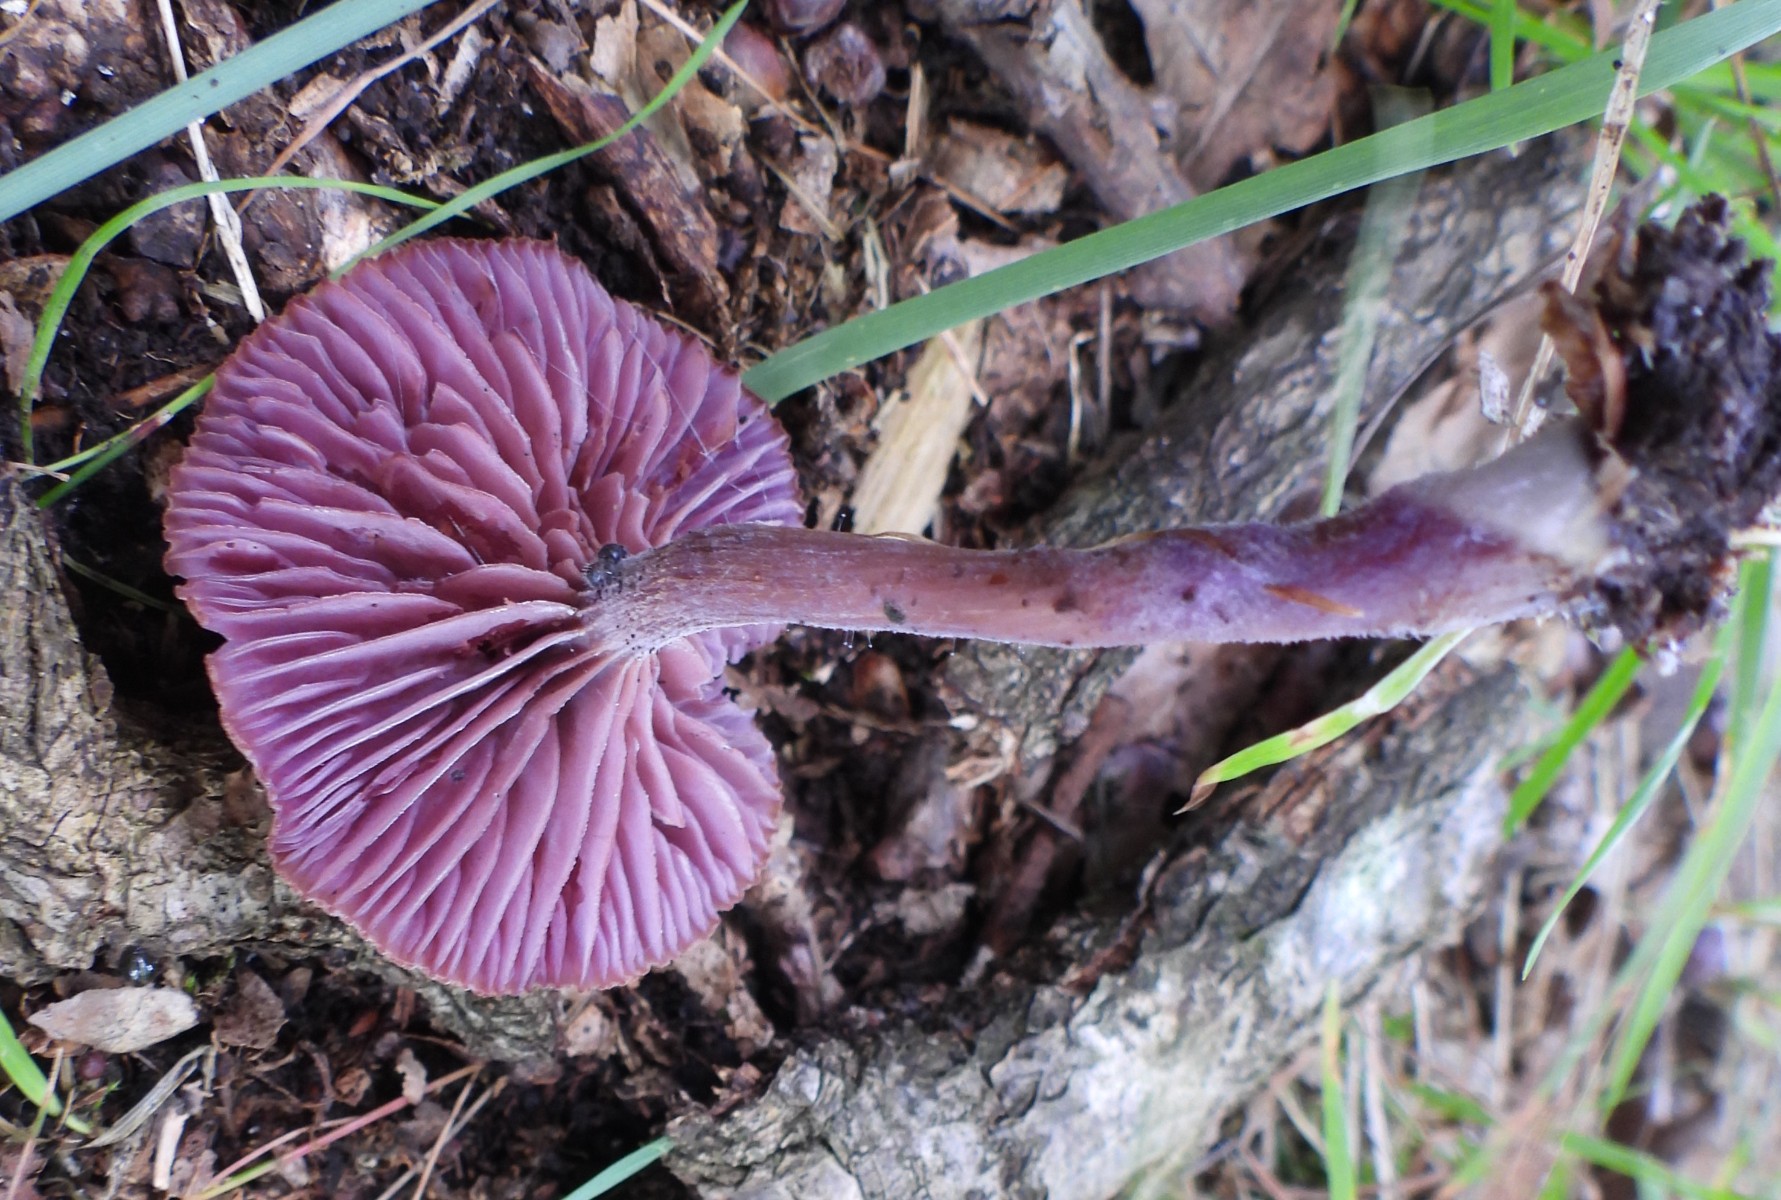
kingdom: Fungi
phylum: Basidiomycota
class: Agaricomycetes
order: Agaricales
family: Hydnangiaceae
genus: Laccaria
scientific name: Laccaria amethystina
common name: violet ametysthat
